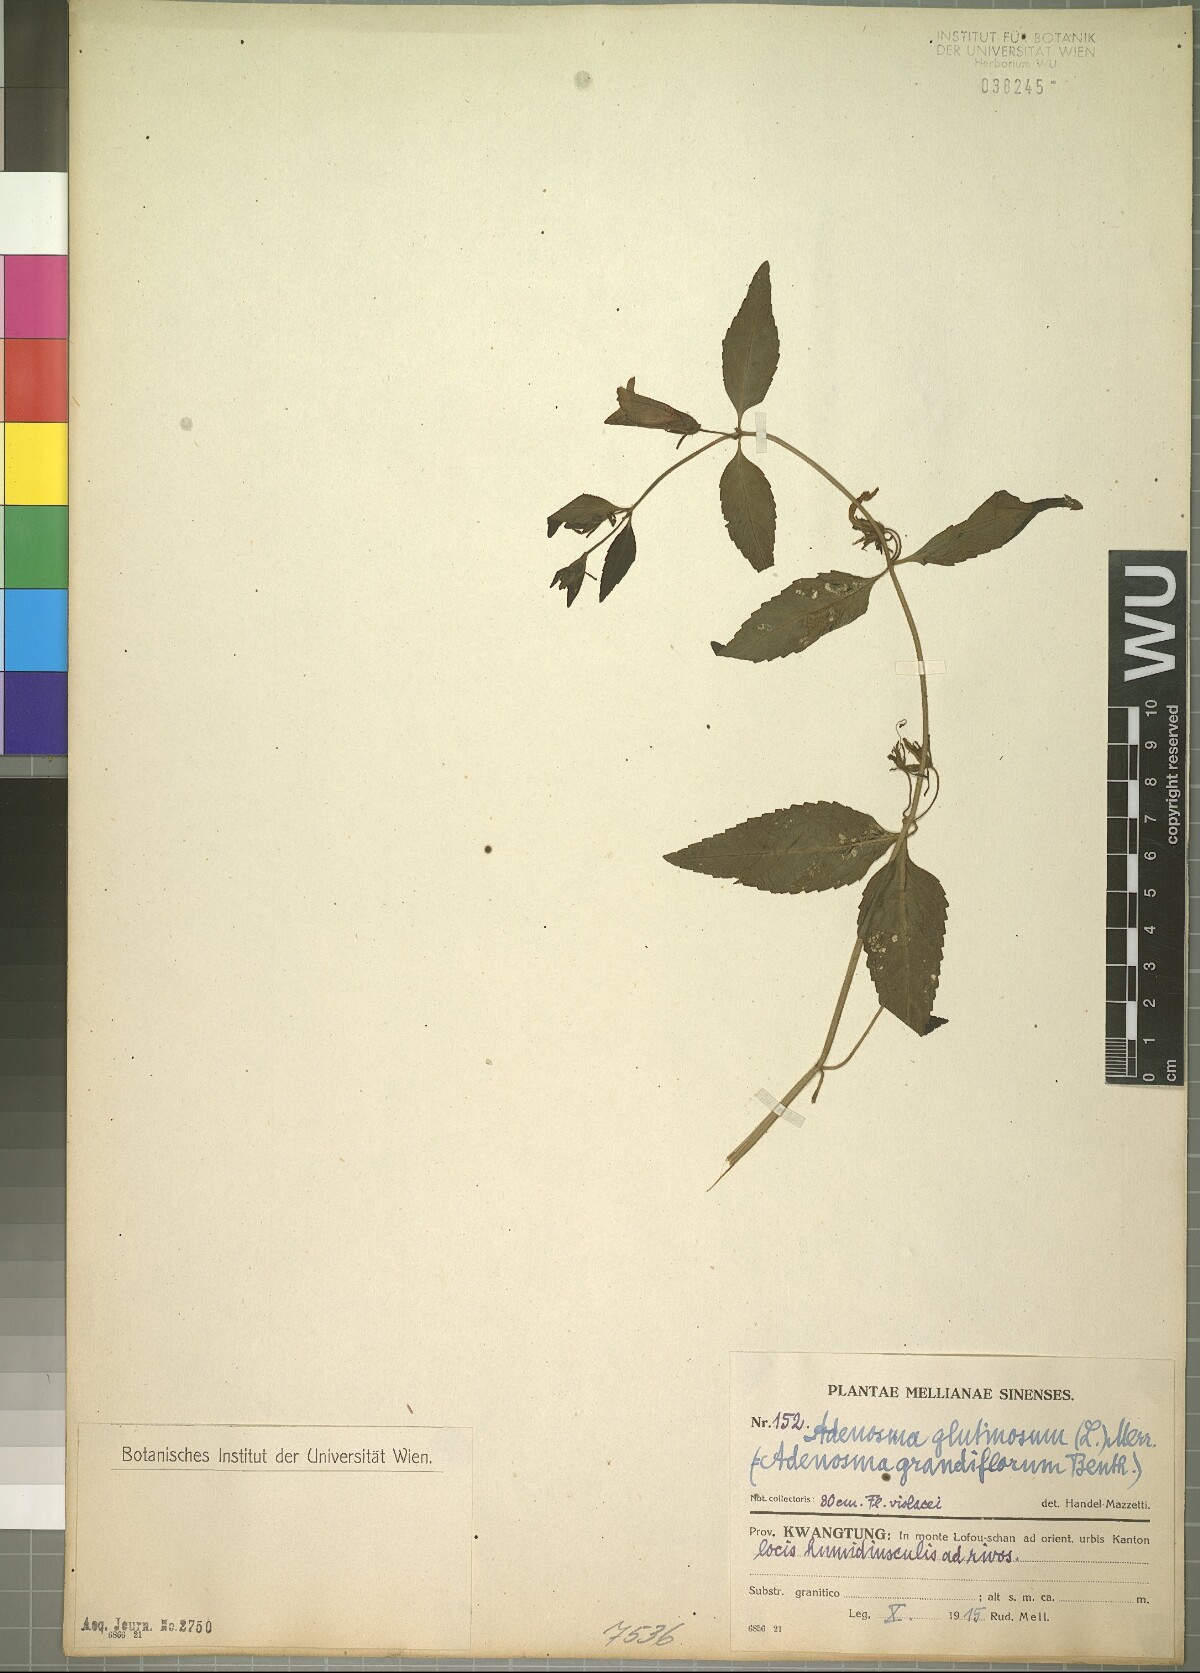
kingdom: Plantae
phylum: Tracheophyta
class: Magnoliopsida
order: Lamiales
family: Plantaginaceae
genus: Adenosma
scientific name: Adenosma glutinosa
